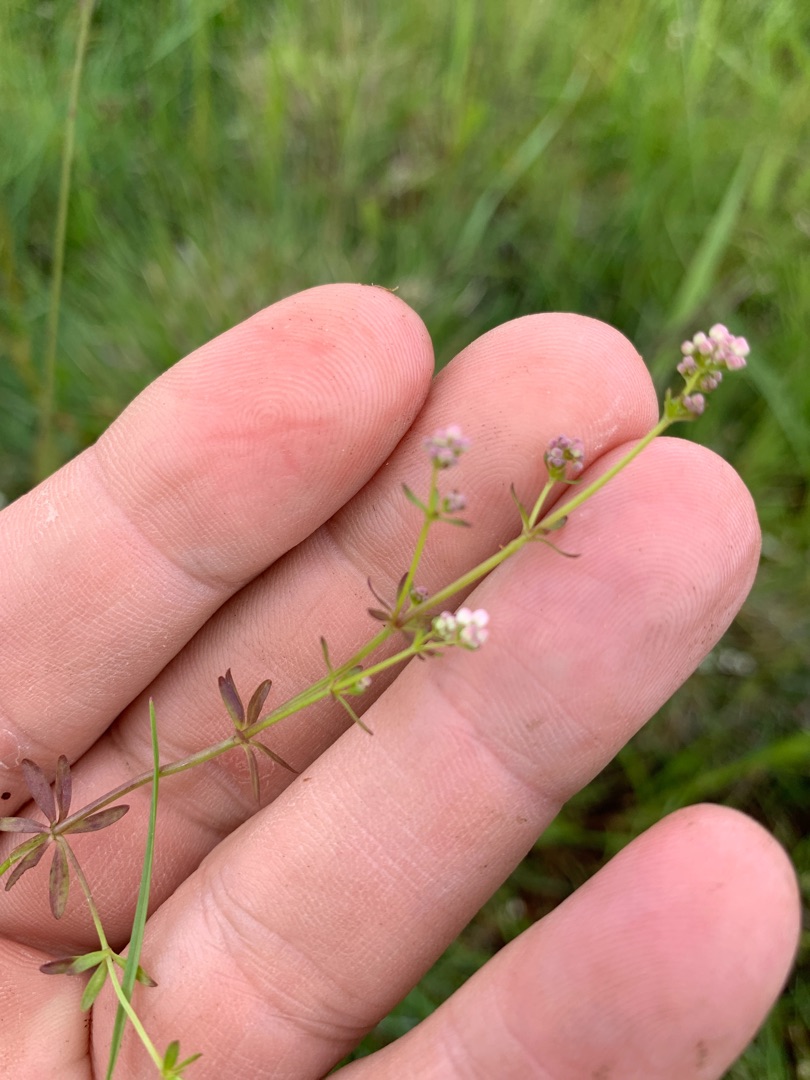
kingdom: Plantae
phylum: Tracheophyta
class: Magnoliopsida
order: Gentianales
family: Rubiaceae
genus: Galium
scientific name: Galium mollugo
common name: Hvid snerre
